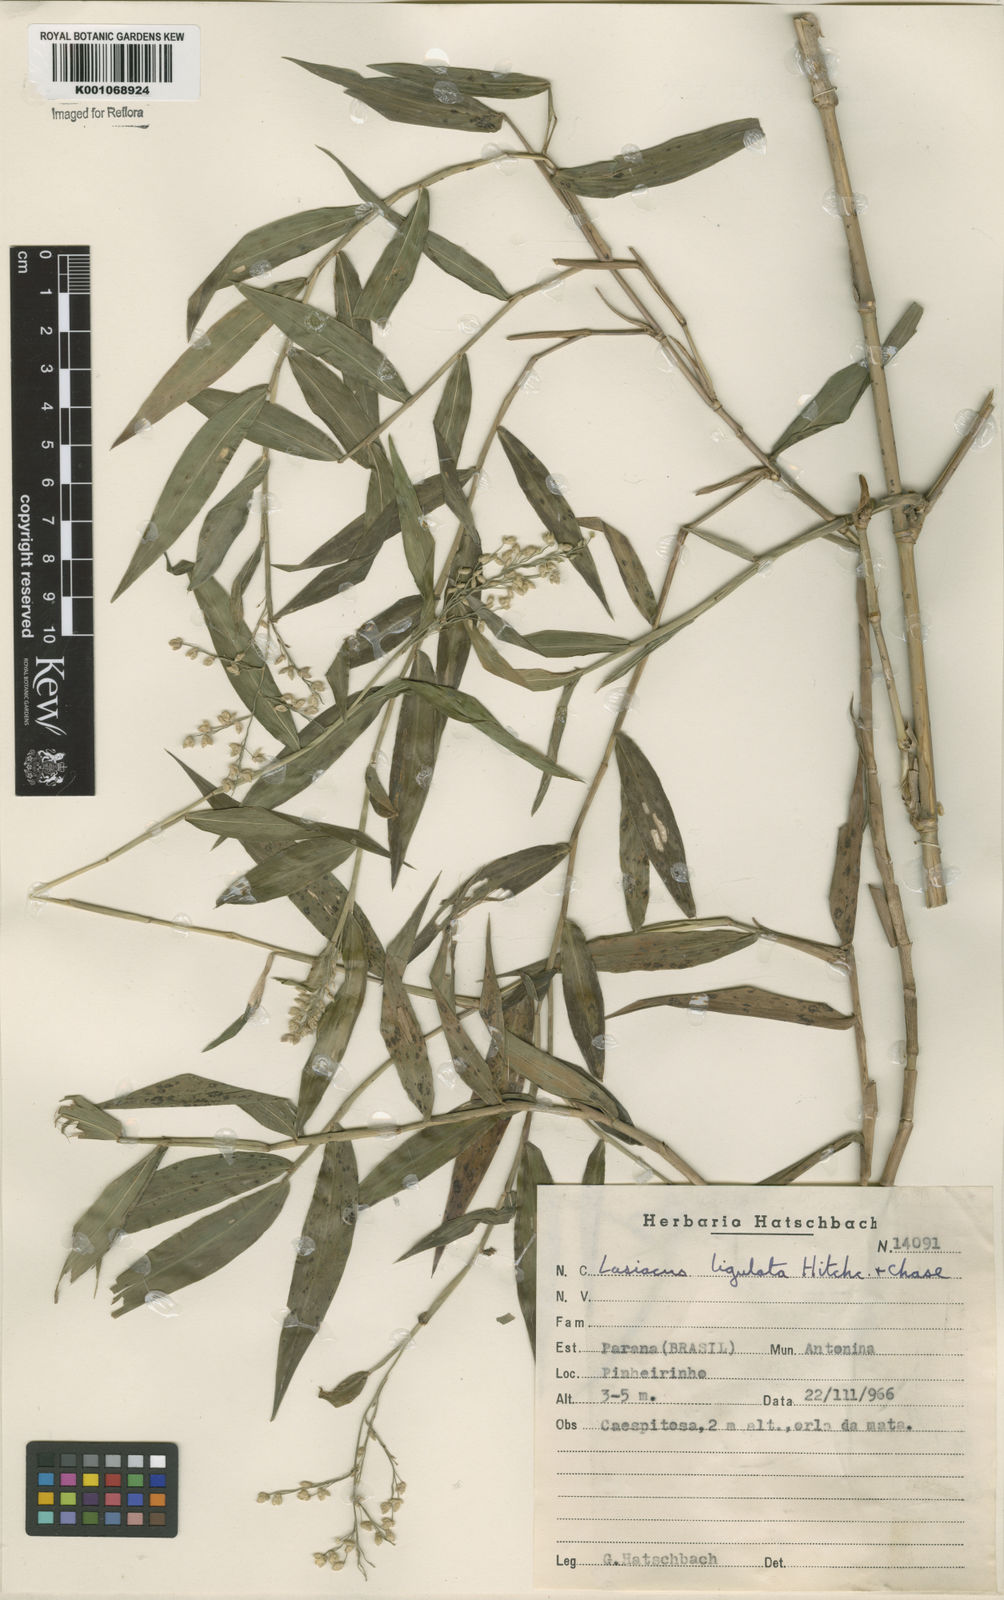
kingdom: Plantae
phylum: Tracheophyta
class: Liliopsida
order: Poales
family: Poaceae
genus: Lasiacis
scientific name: Lasiacis ligulata
